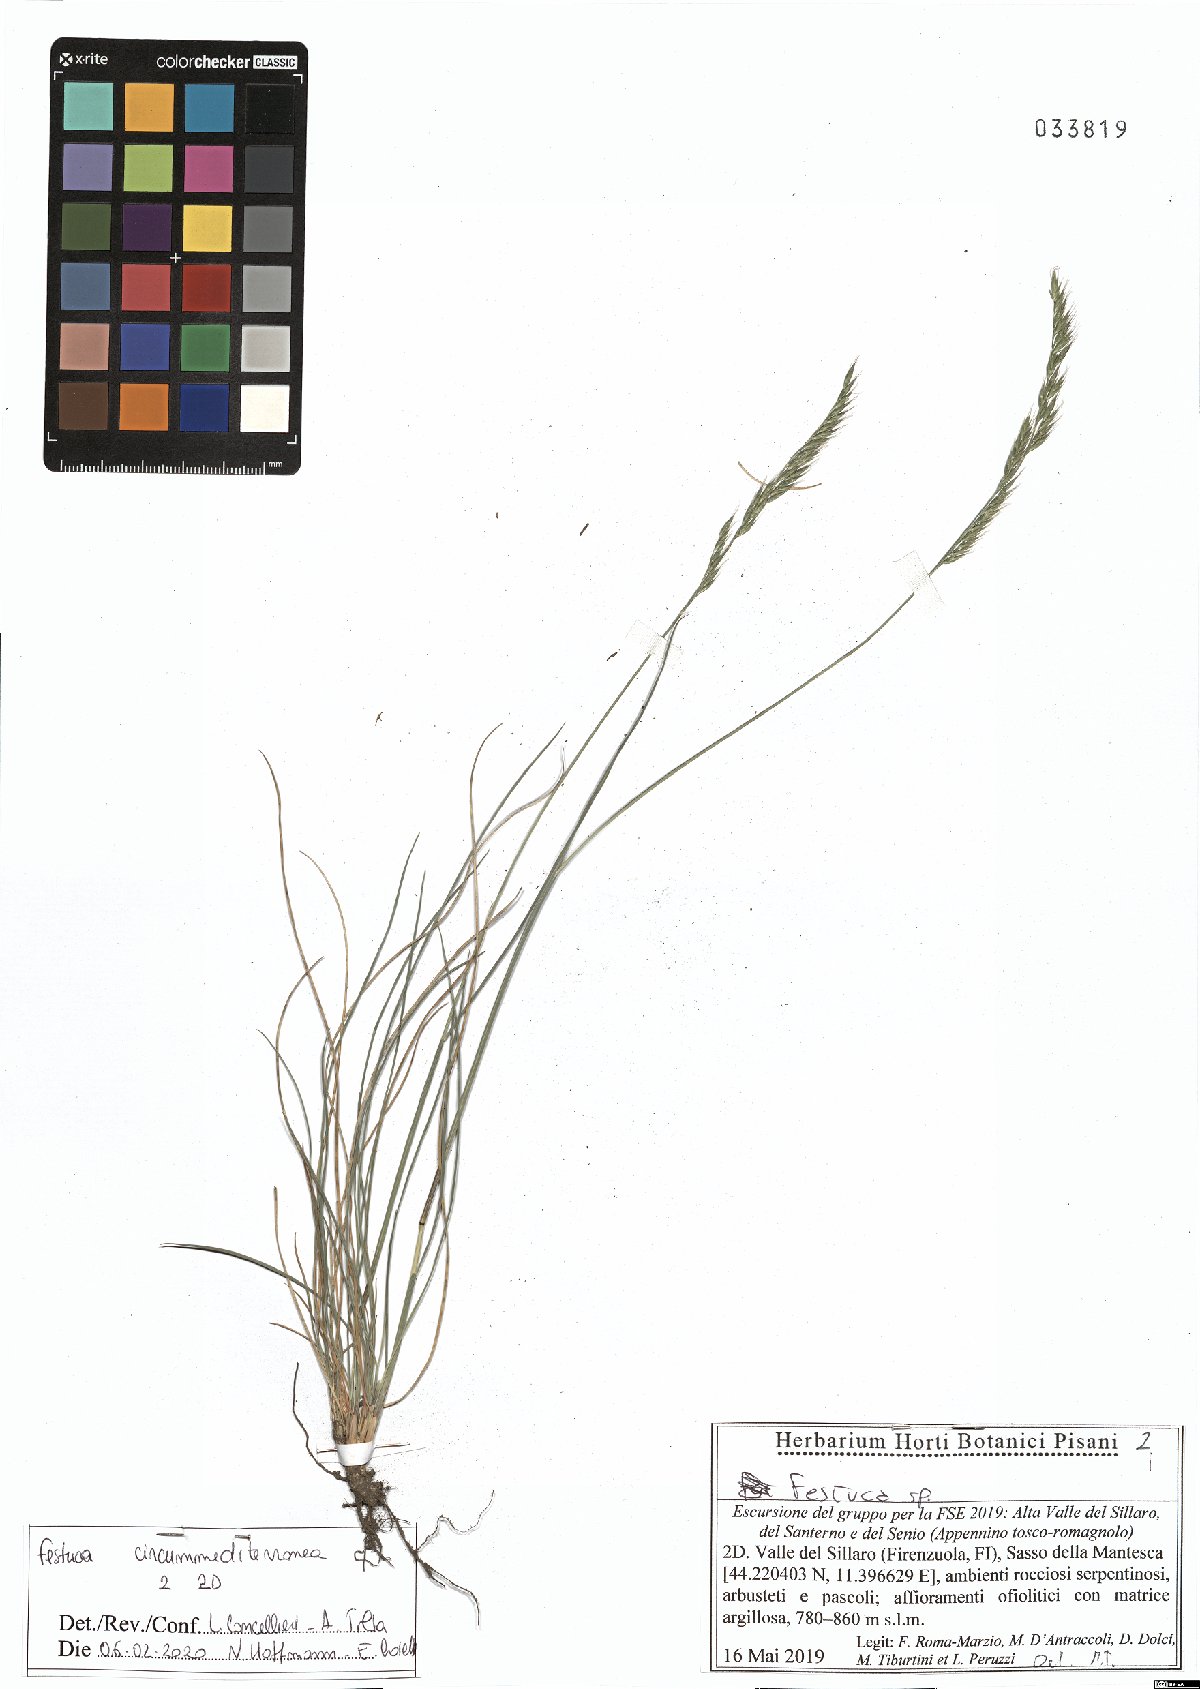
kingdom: Plantae
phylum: Tracheophyta
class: Liliopsida
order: Poales
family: Poaceae
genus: Festuca
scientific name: Festuca circummediterranea
